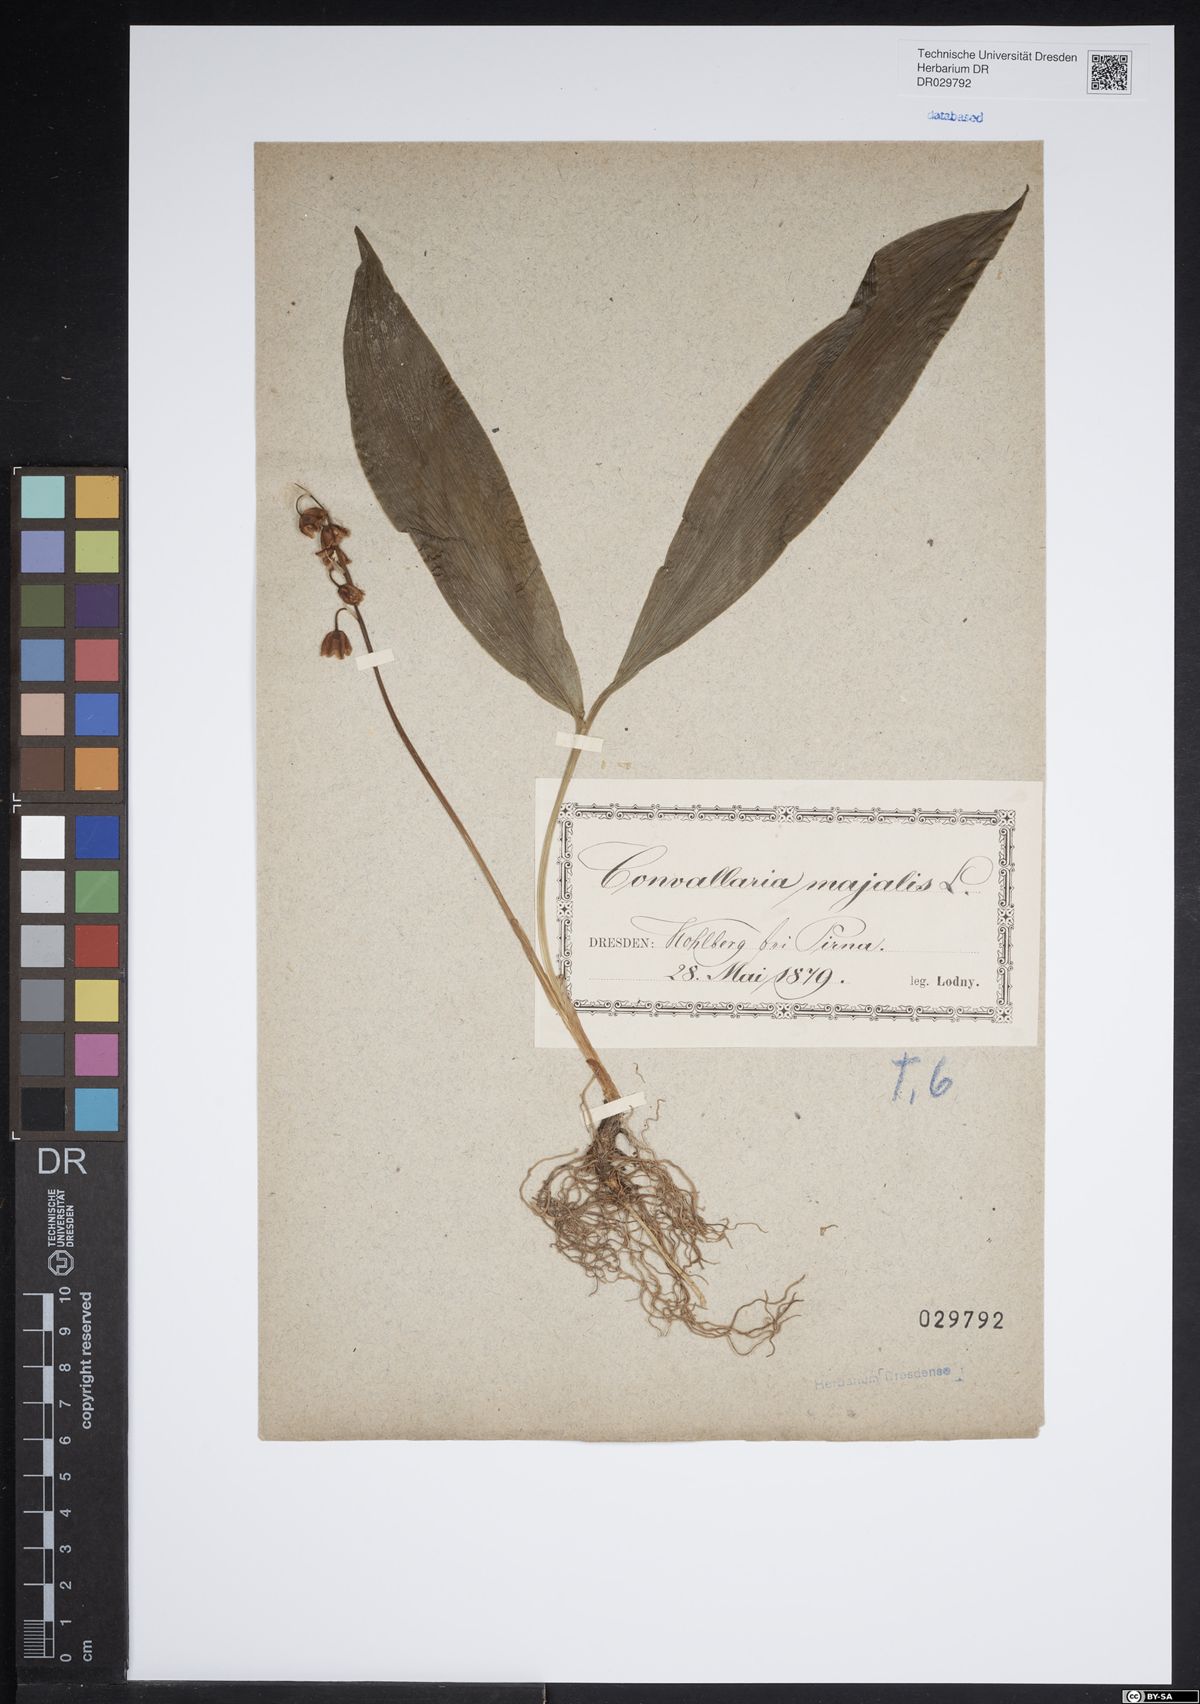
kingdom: Plantae
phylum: Tracheophyta
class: Liliopsida
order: Asparagales
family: Asparagaceae
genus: Convallaria
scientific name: Convallaria majalis
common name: Lily-of-the-valley
